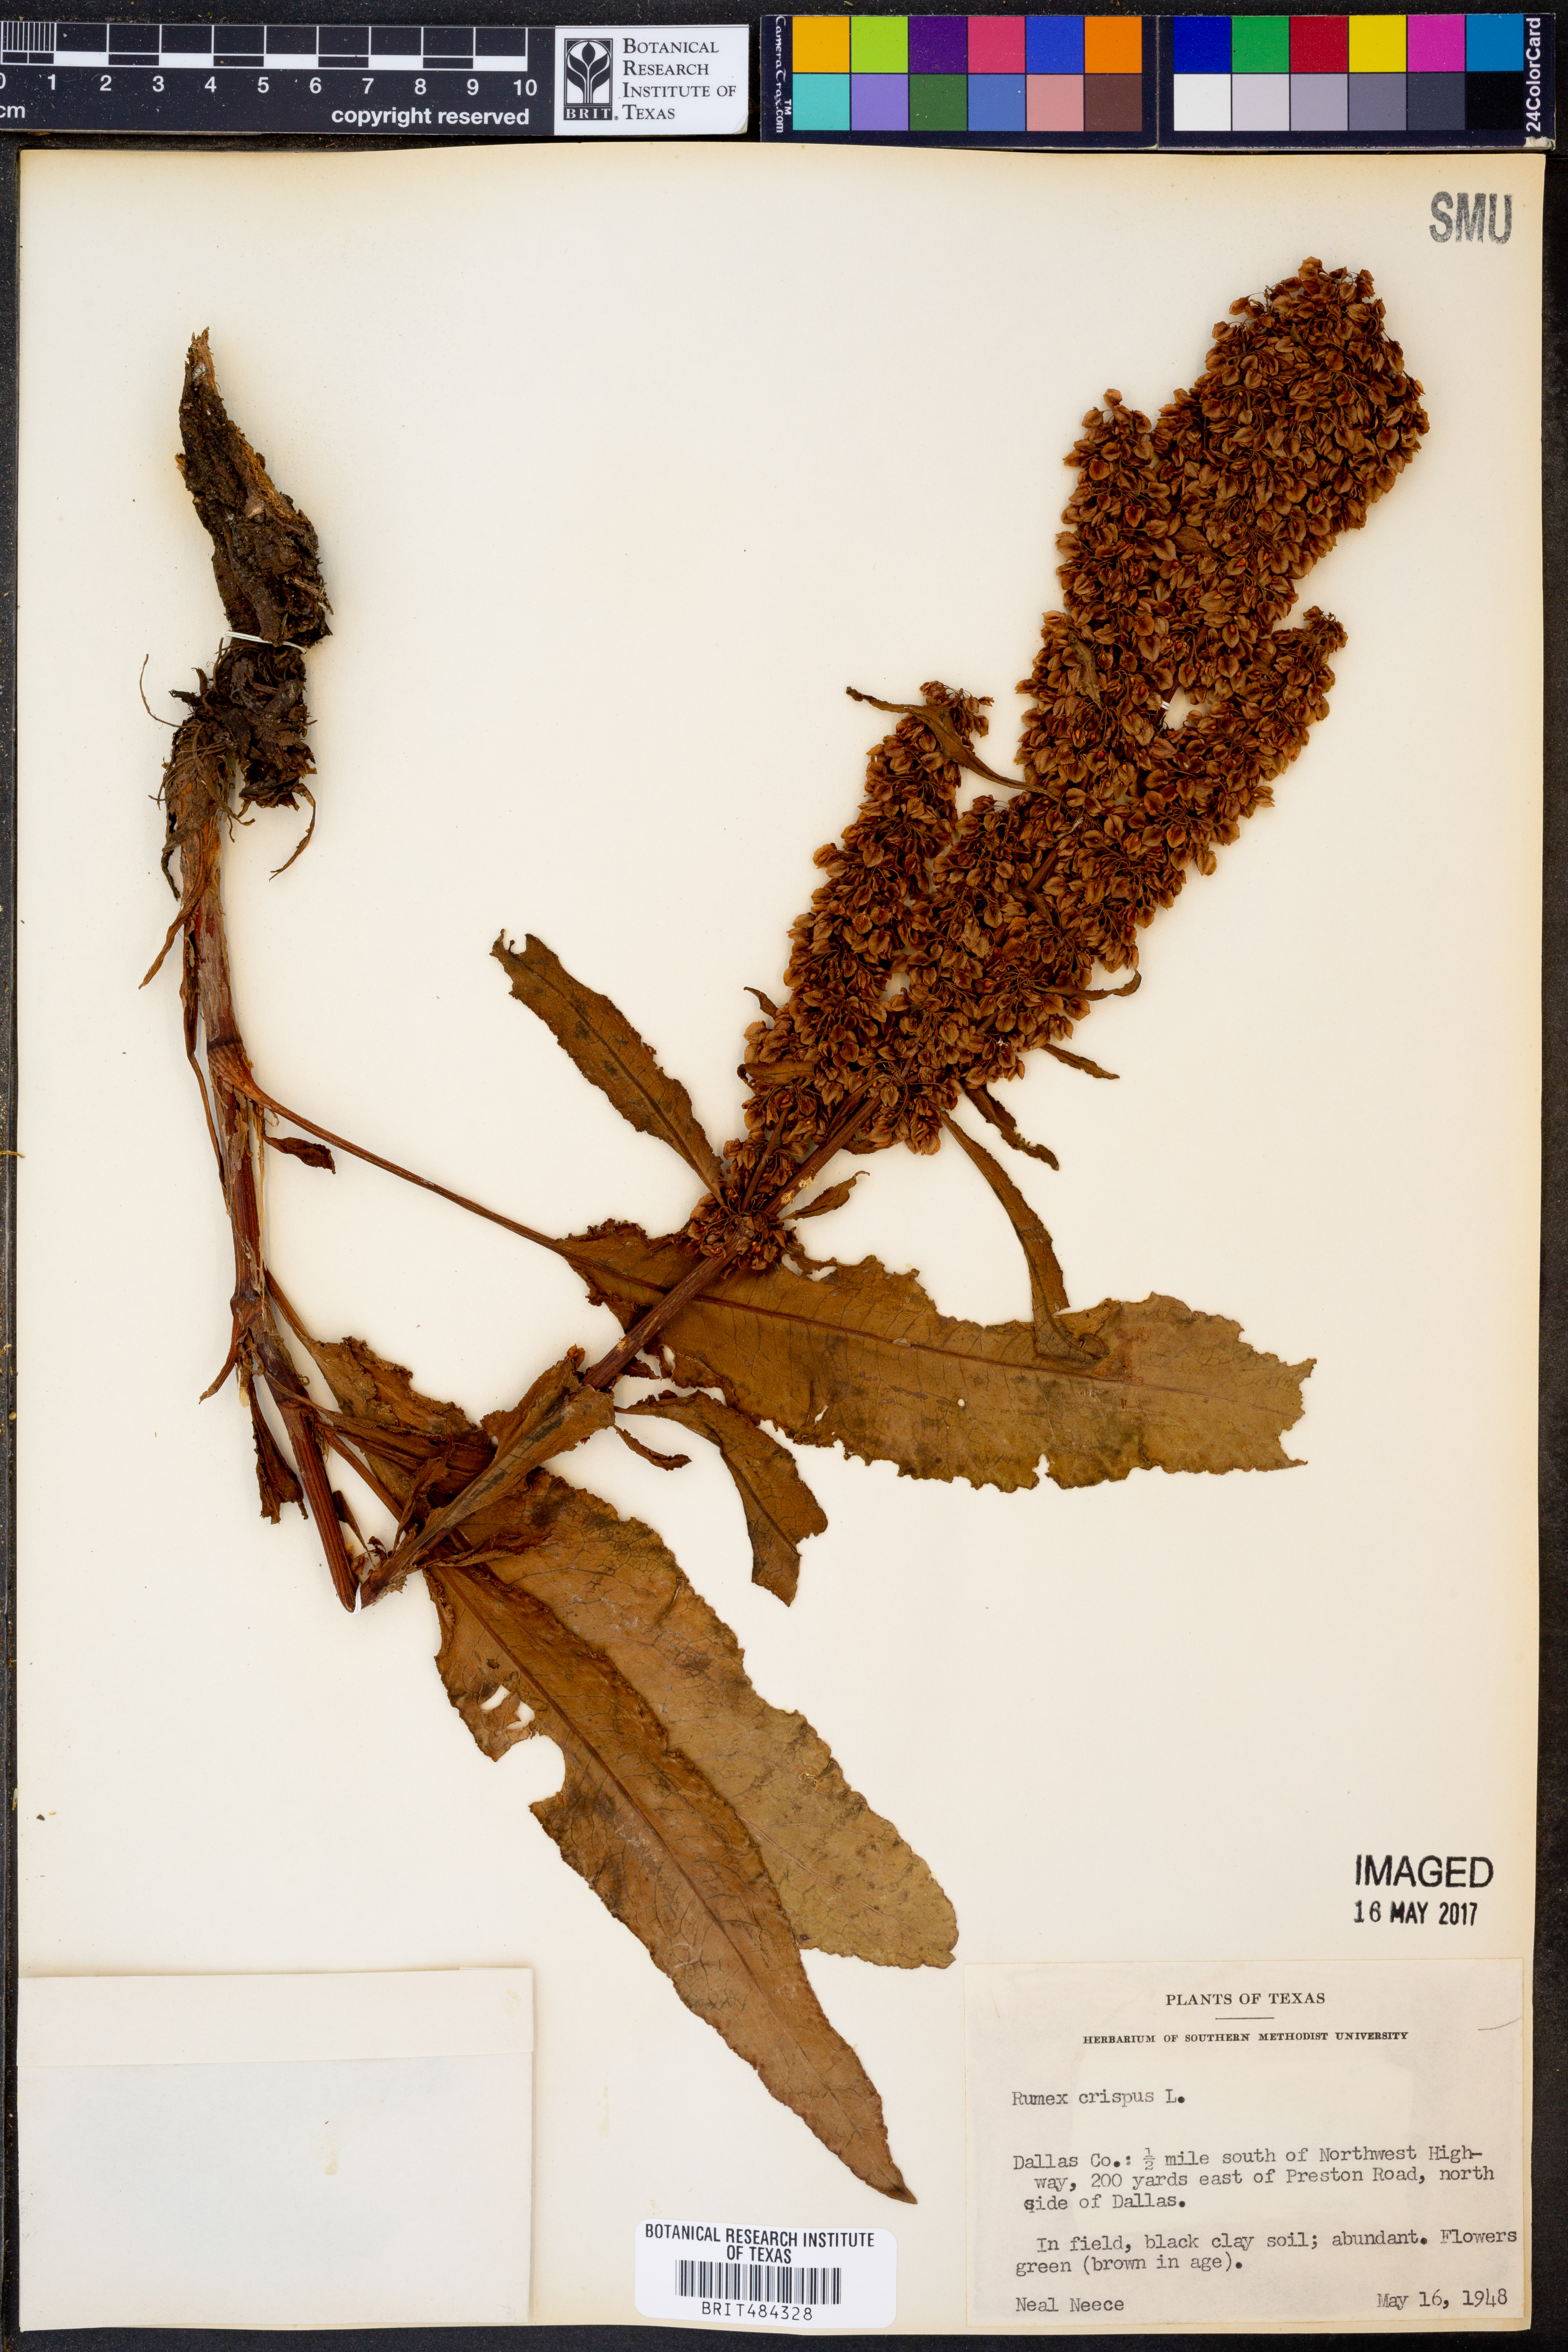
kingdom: Plantae
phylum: Tracheophyta
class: Magnoliopsida
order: Caryophyllales
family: Polygonaceae
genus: Rumex
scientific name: Rumex crispus
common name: Curled dock
